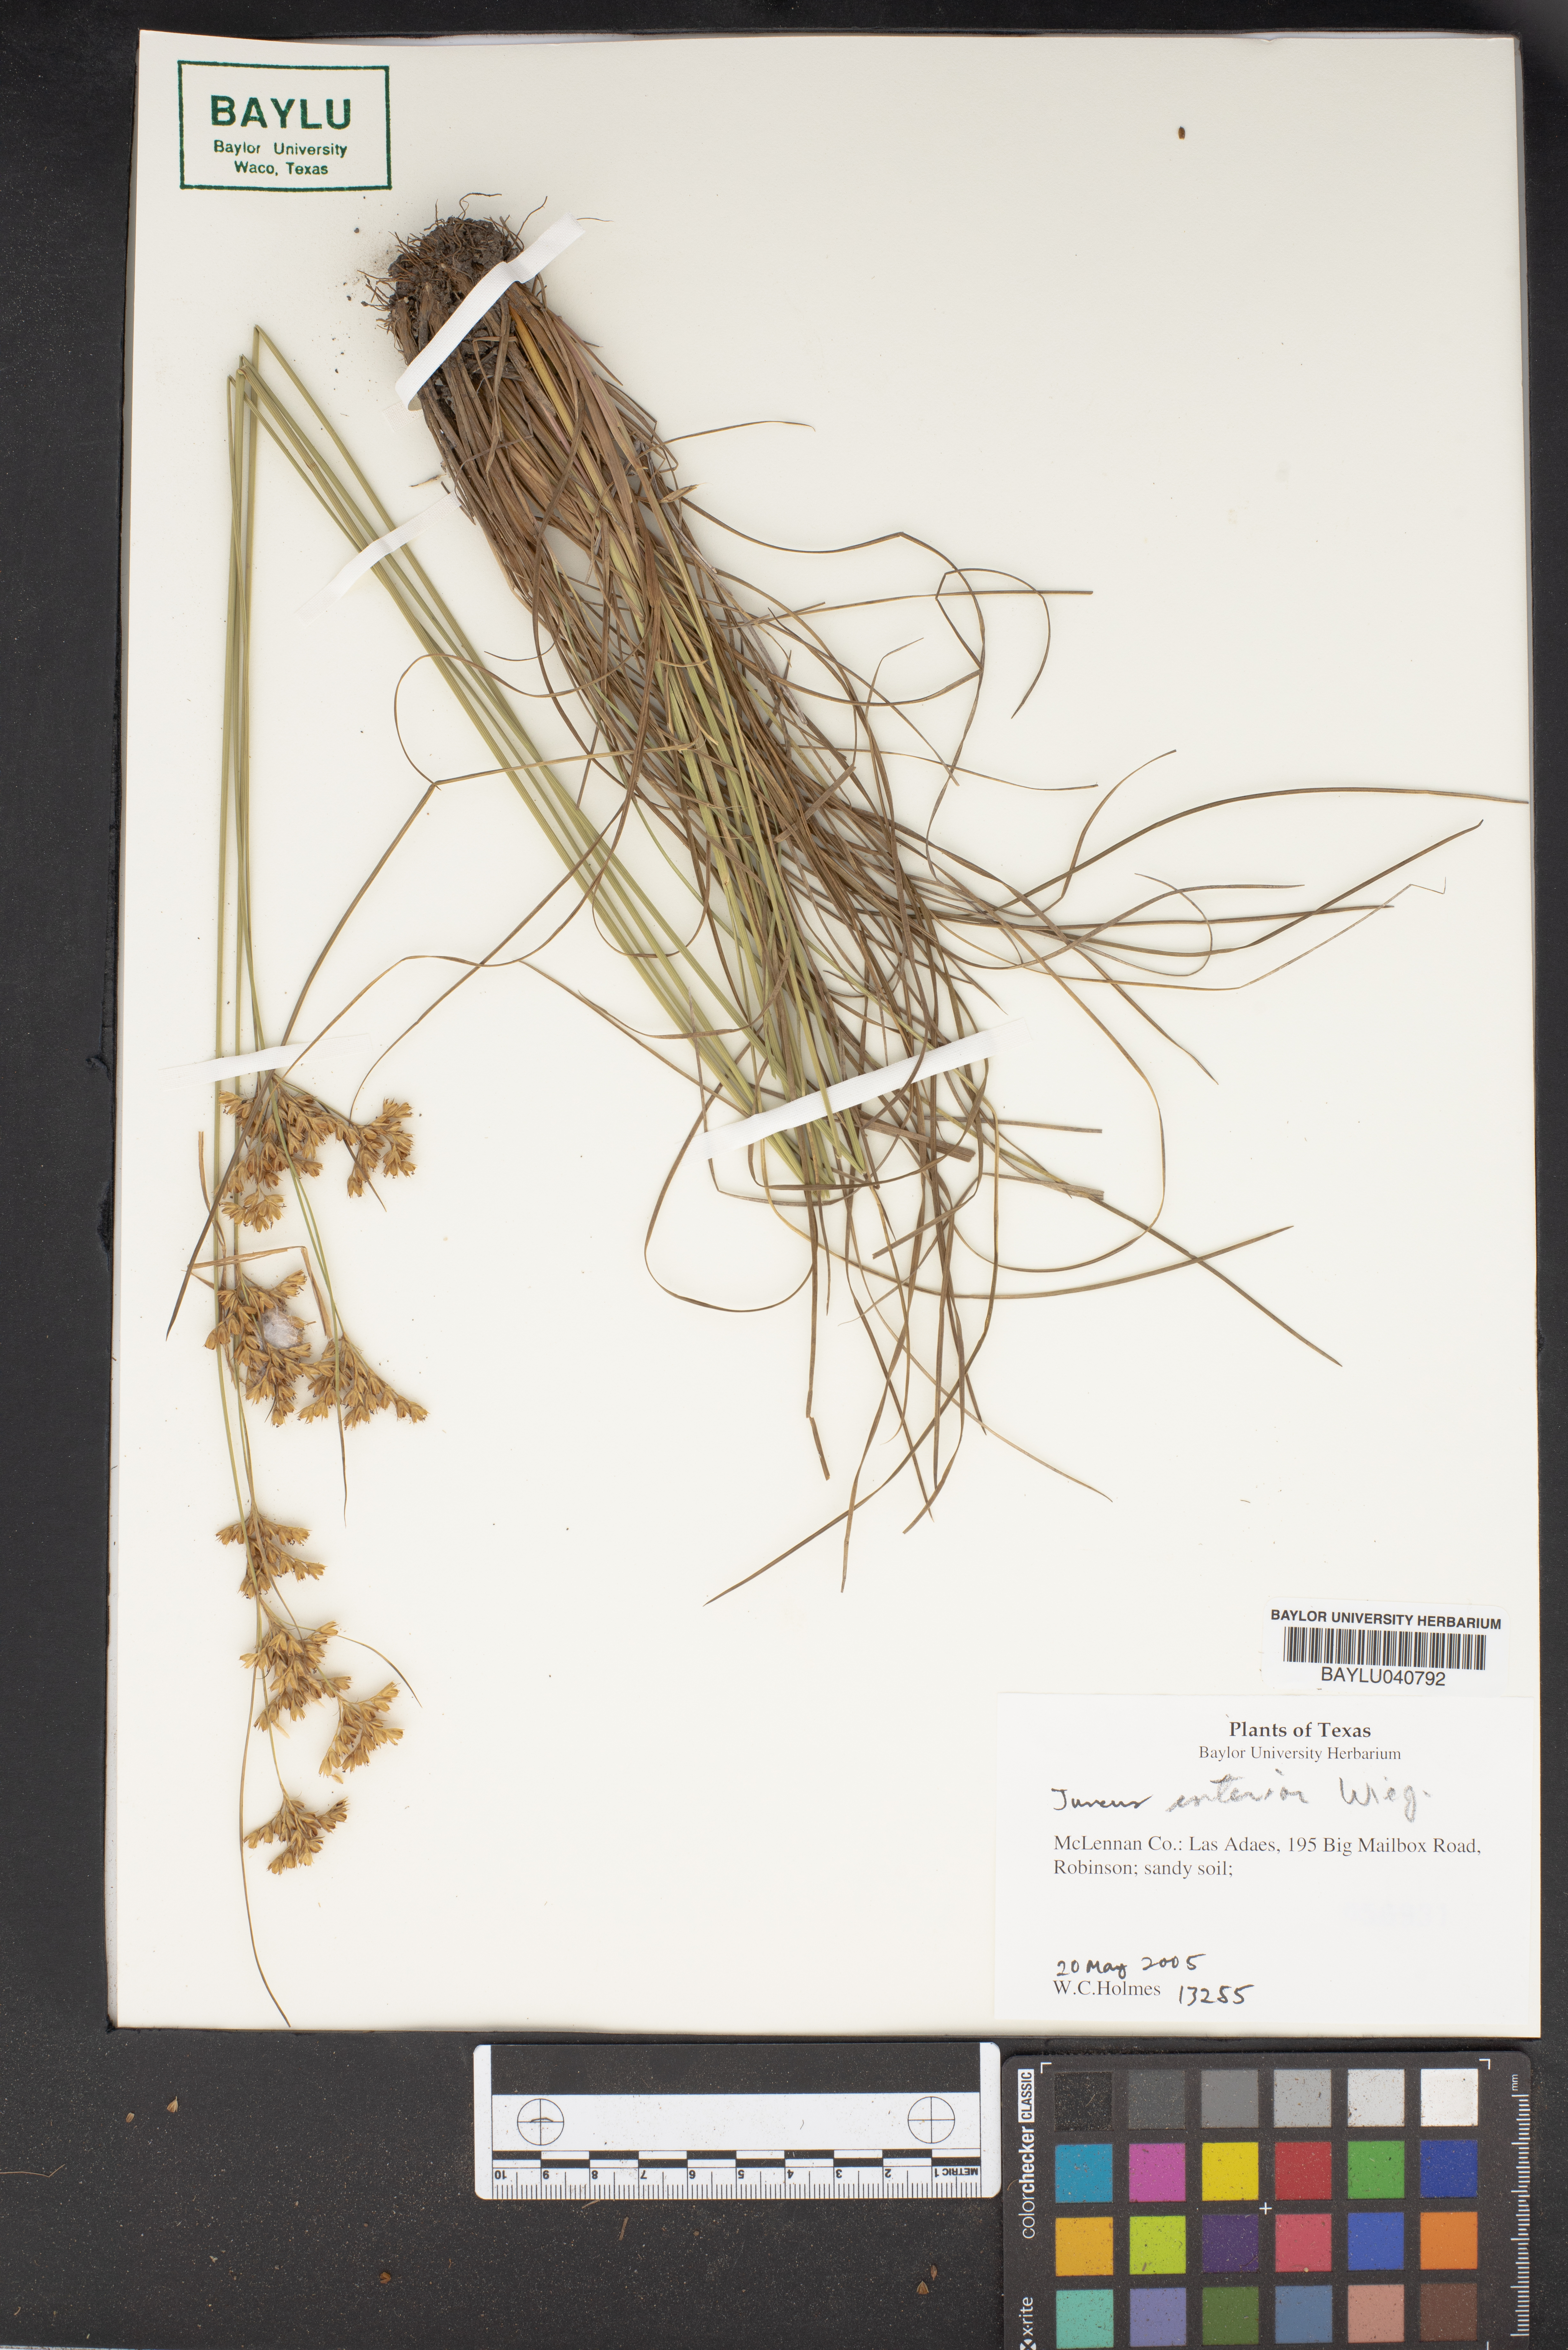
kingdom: Plantae
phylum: Tracheophyta
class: Liliopsida
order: Poales
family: Juncaceae
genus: Juncus
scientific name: Juncus interior
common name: Interior rush
